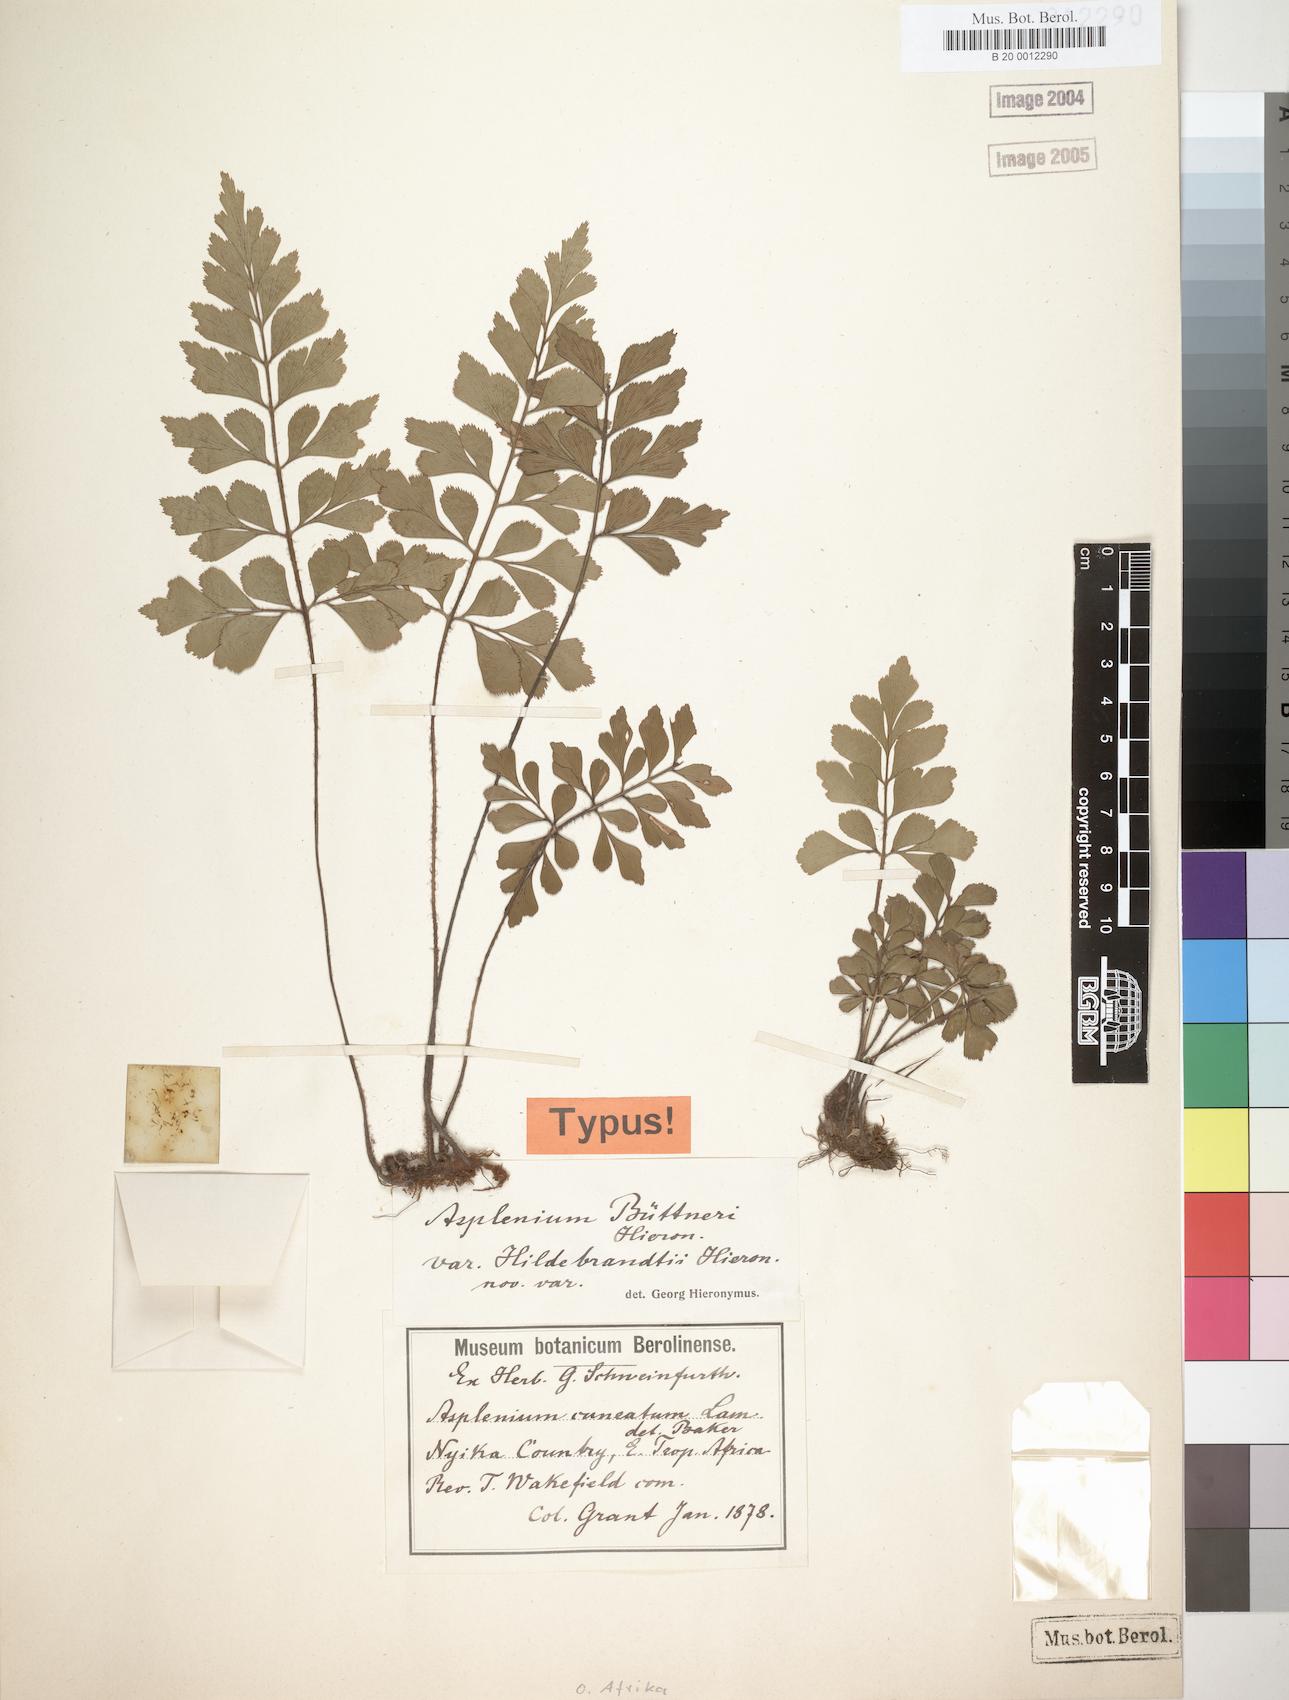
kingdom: Plantae
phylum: Tracheophyta
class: Polypodiopsida
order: Polypodiales
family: Aspleniaceae
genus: Asplenium
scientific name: Asplenium hildebrandtianum
